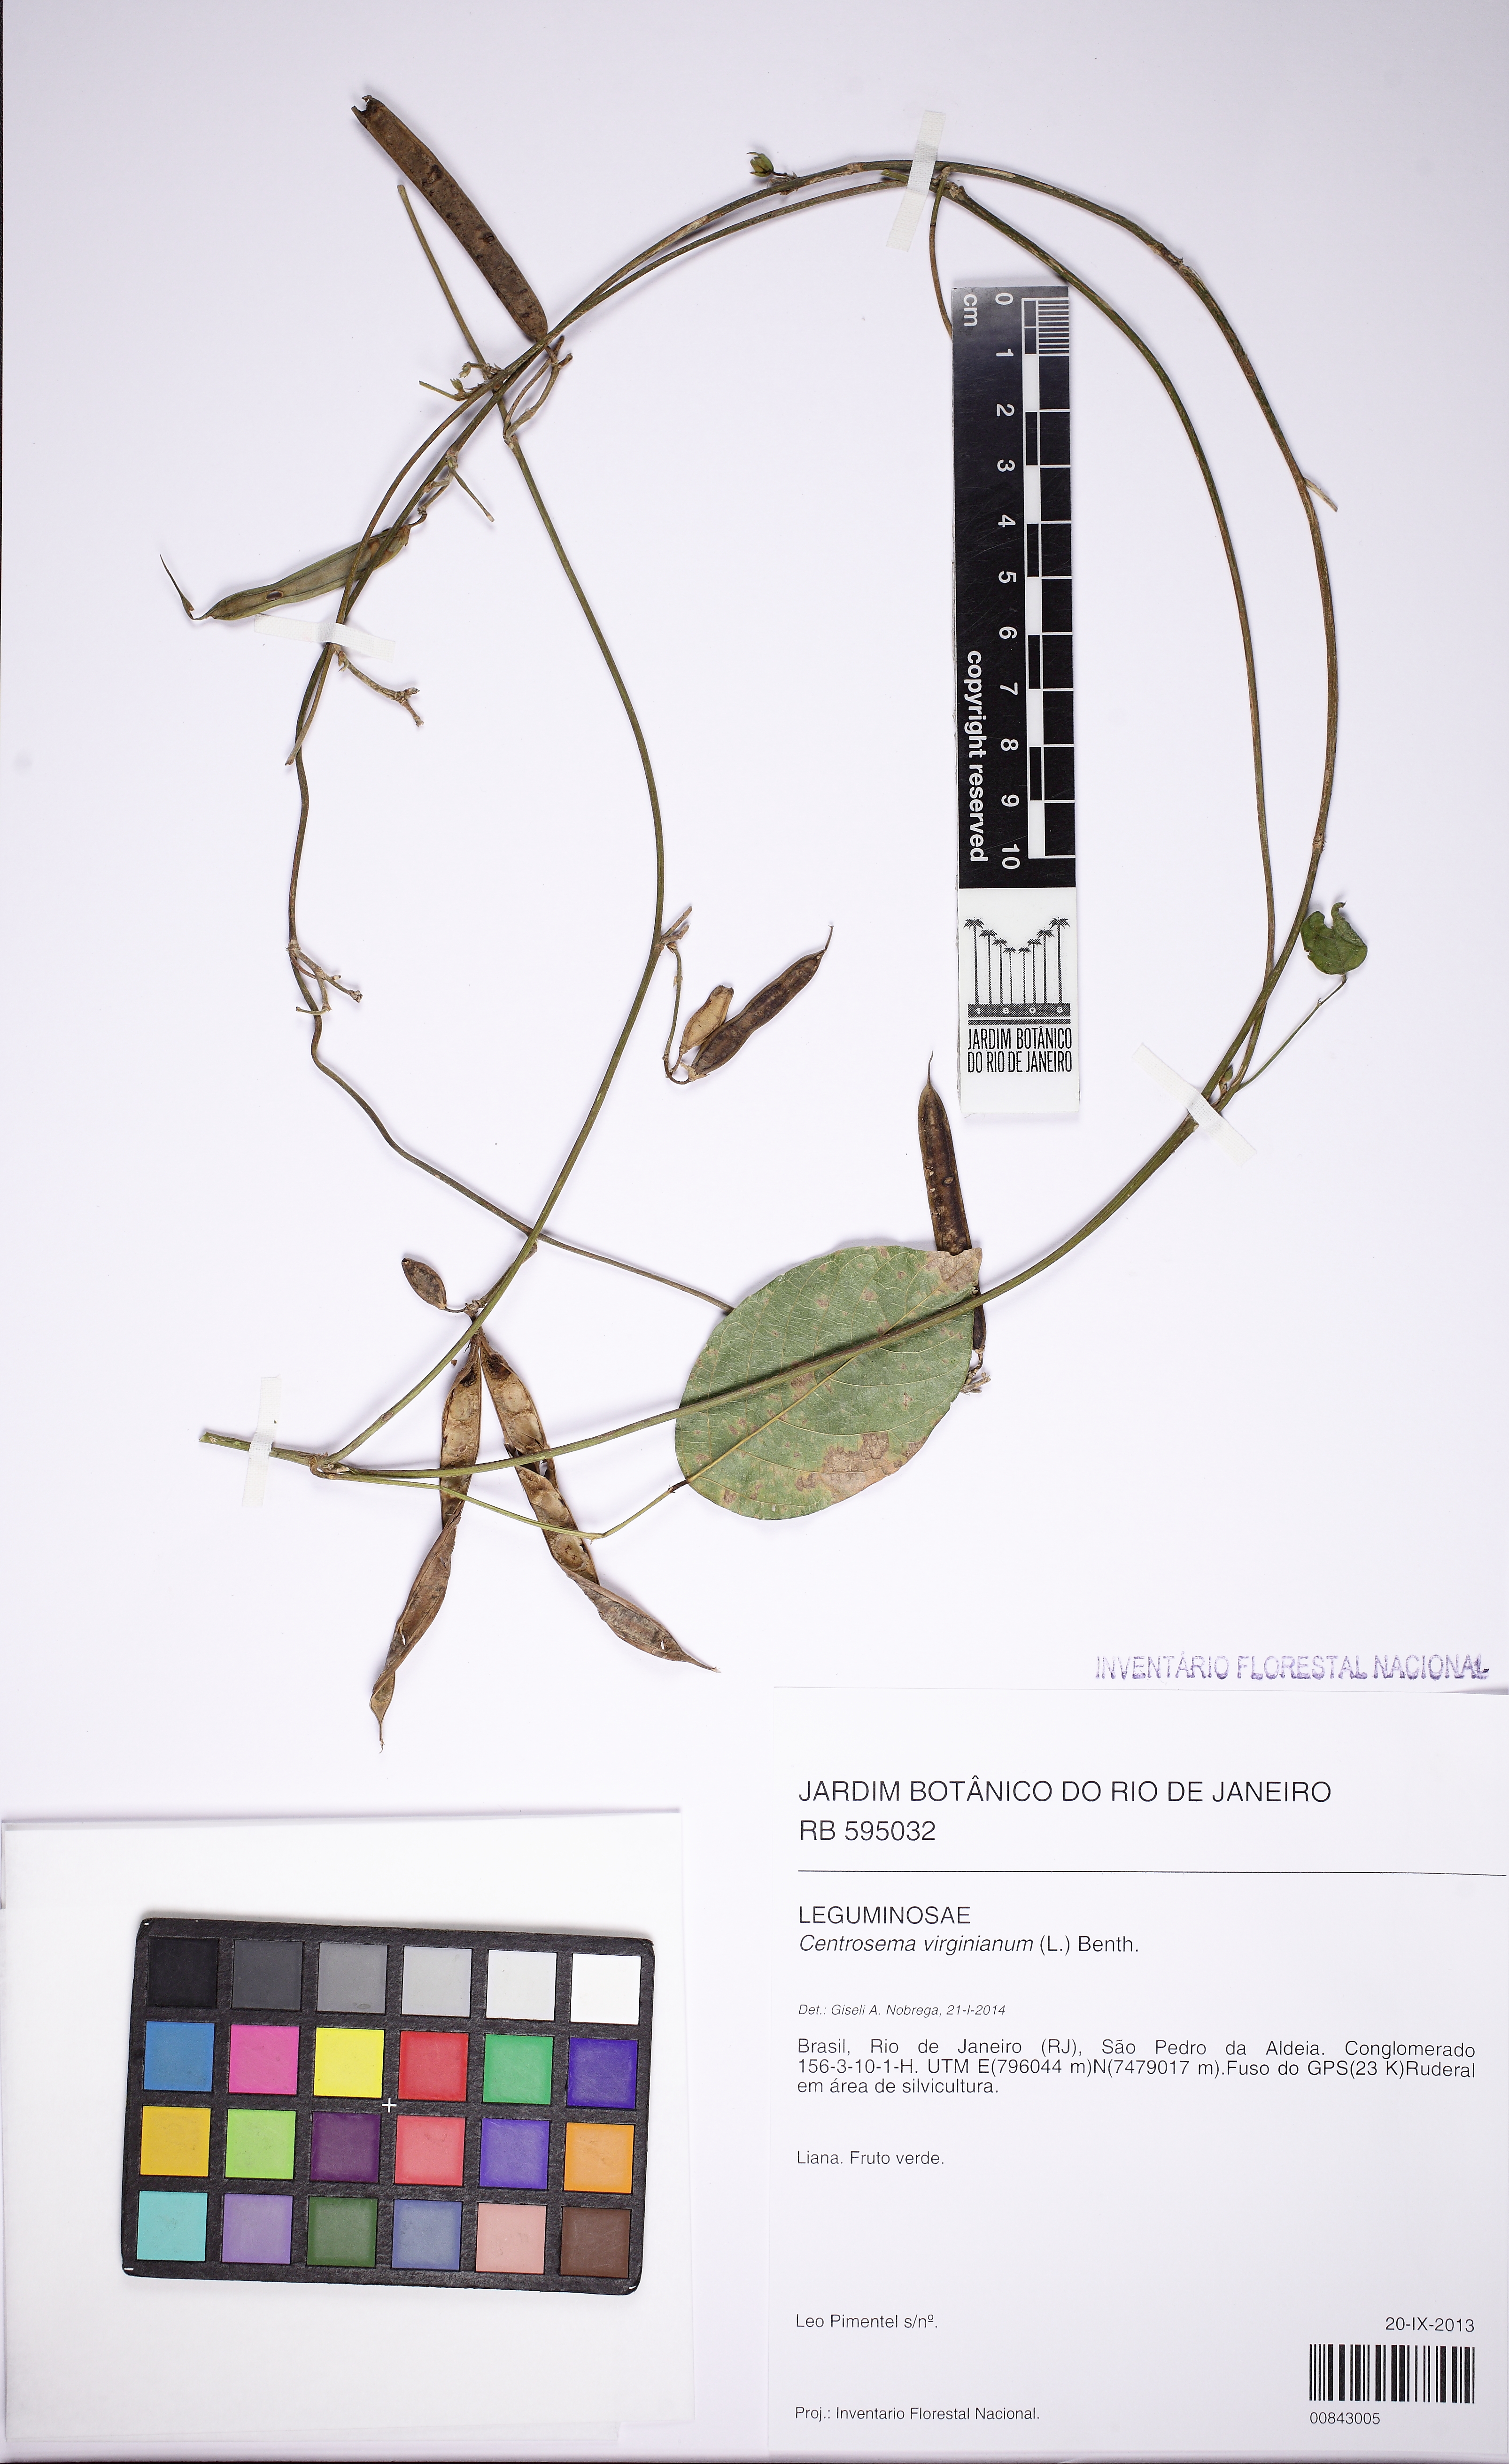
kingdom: Plantae
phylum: Tracheophyta
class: Magnoliopsida
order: Fabales
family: Fabaceae
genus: Centrosema
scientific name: Centrosema virginianum
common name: Butterfly-pea
